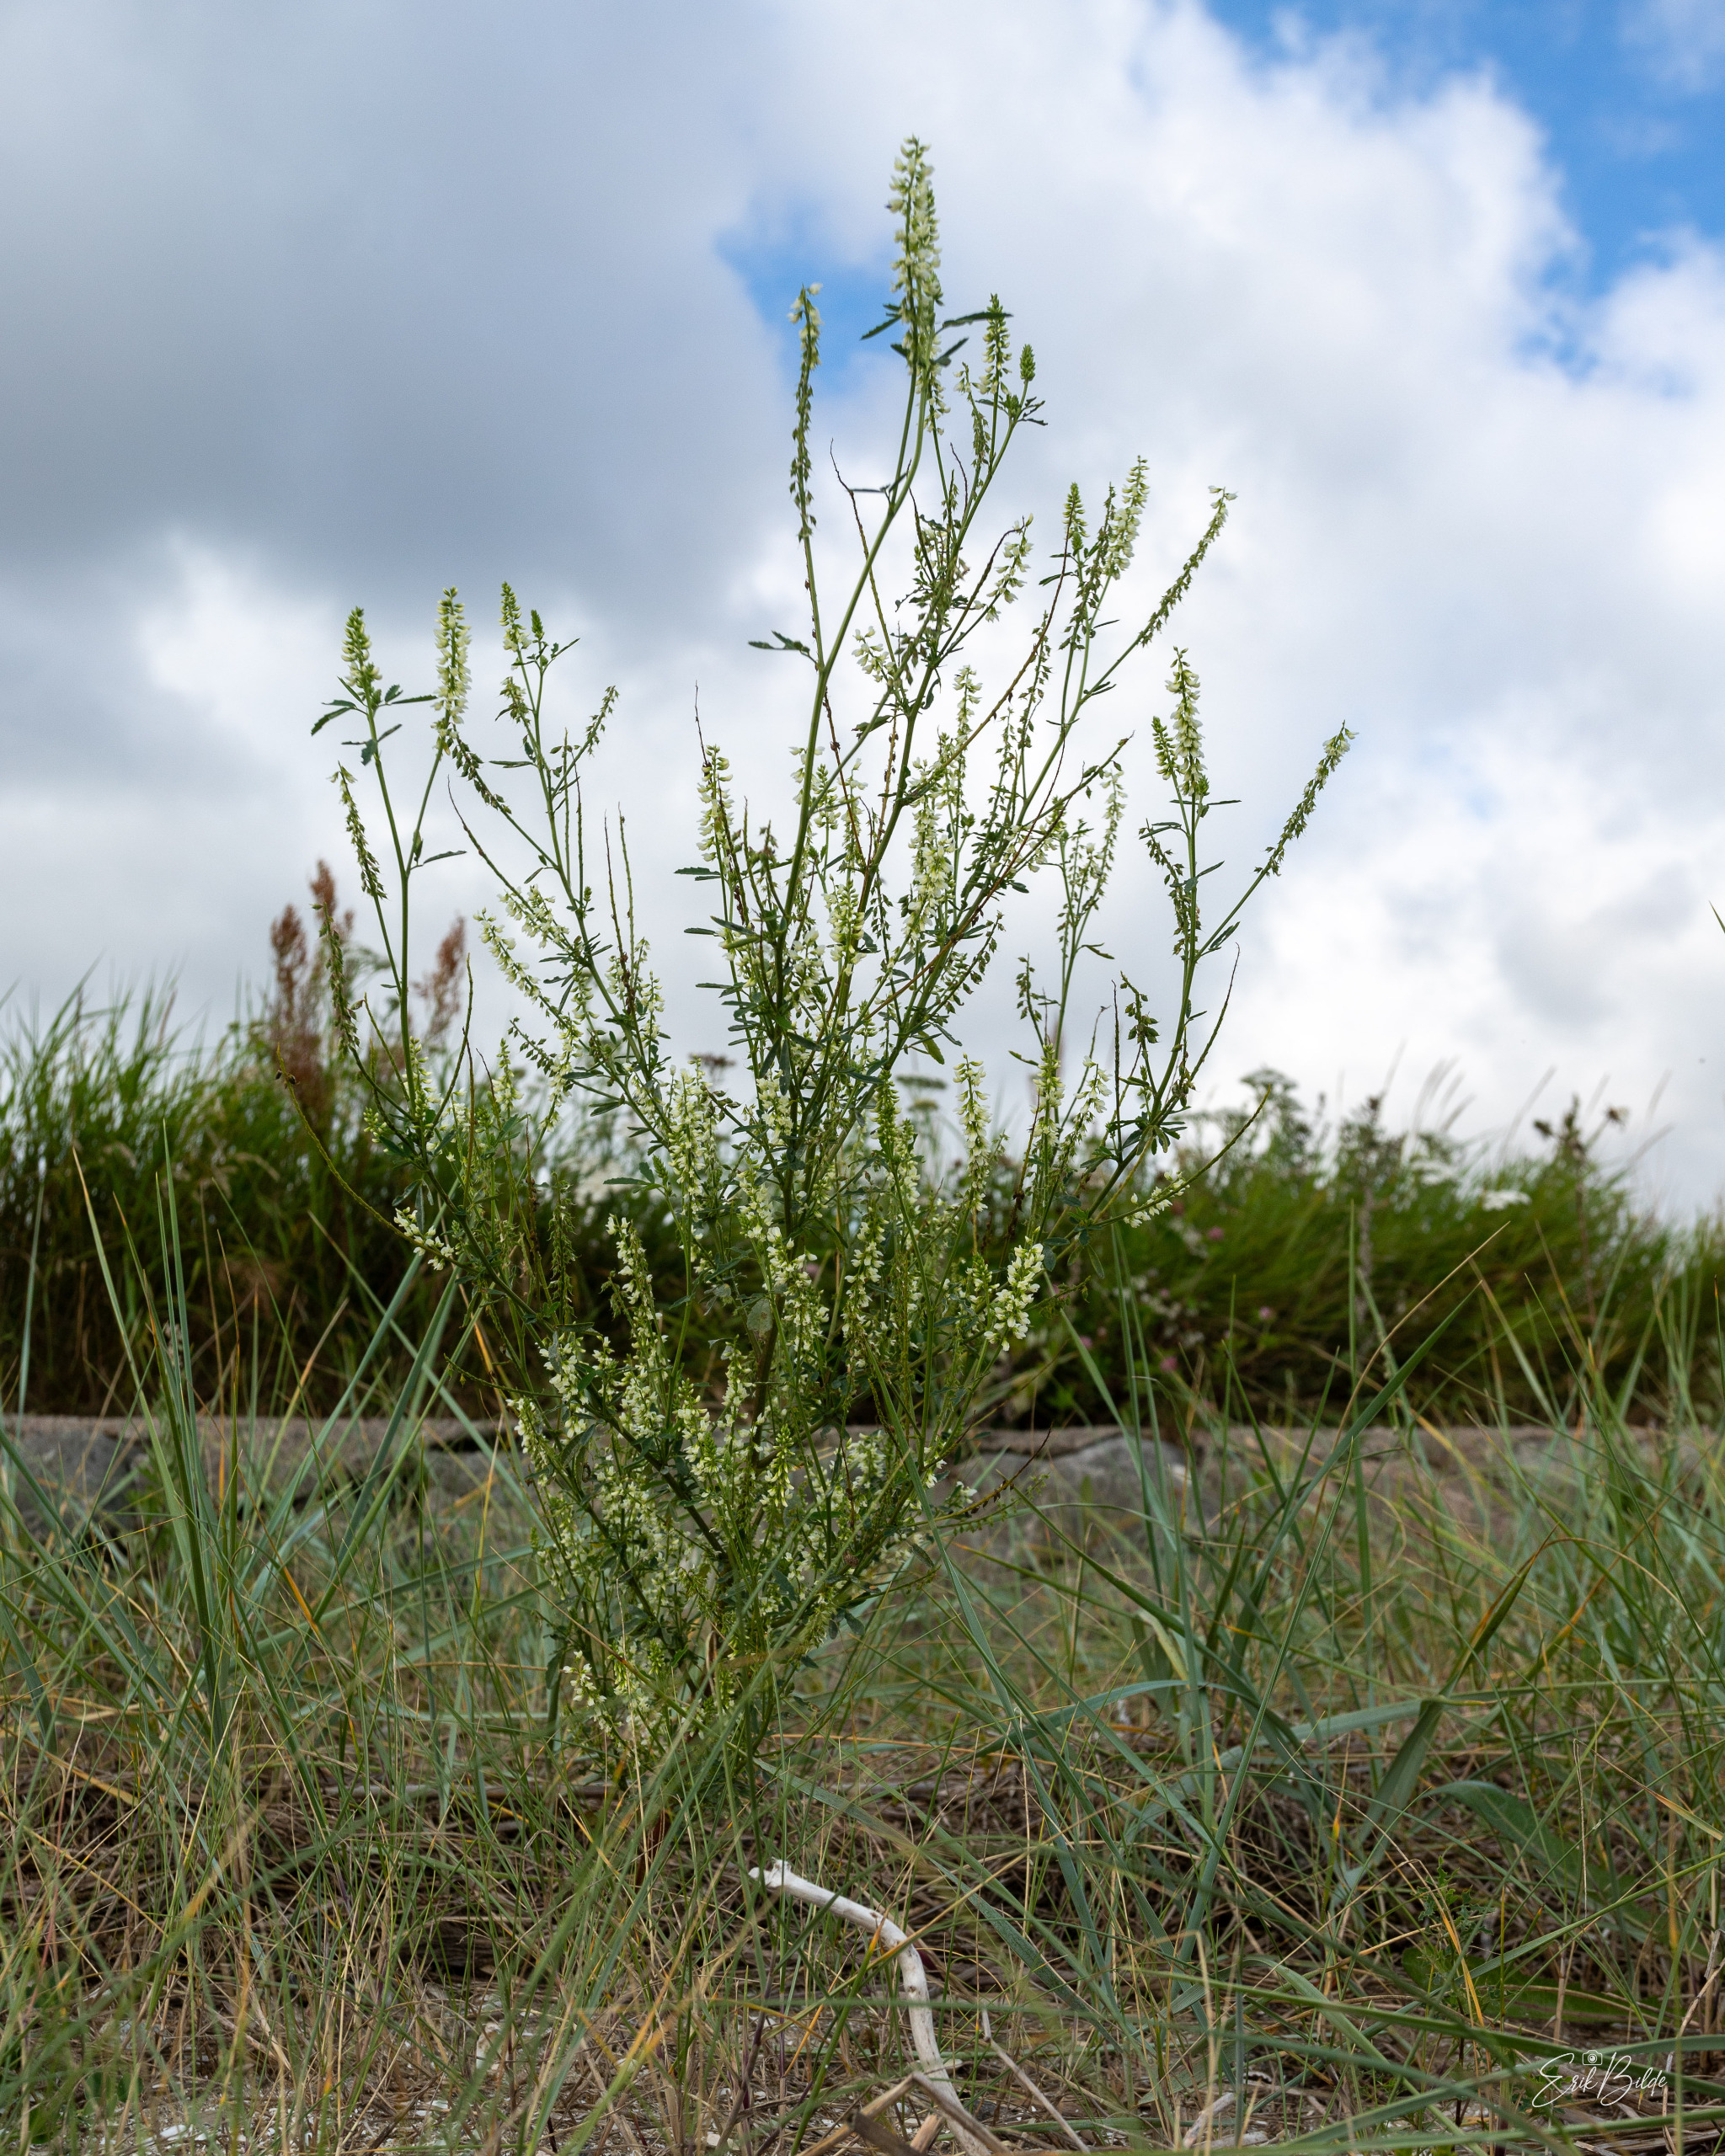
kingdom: Plantae
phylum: Tracheophyta
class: Magnoliopsida
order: Fabales
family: Fabaceae
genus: Melilotus
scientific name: Melilotus albus
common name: Hvid stenkløver
